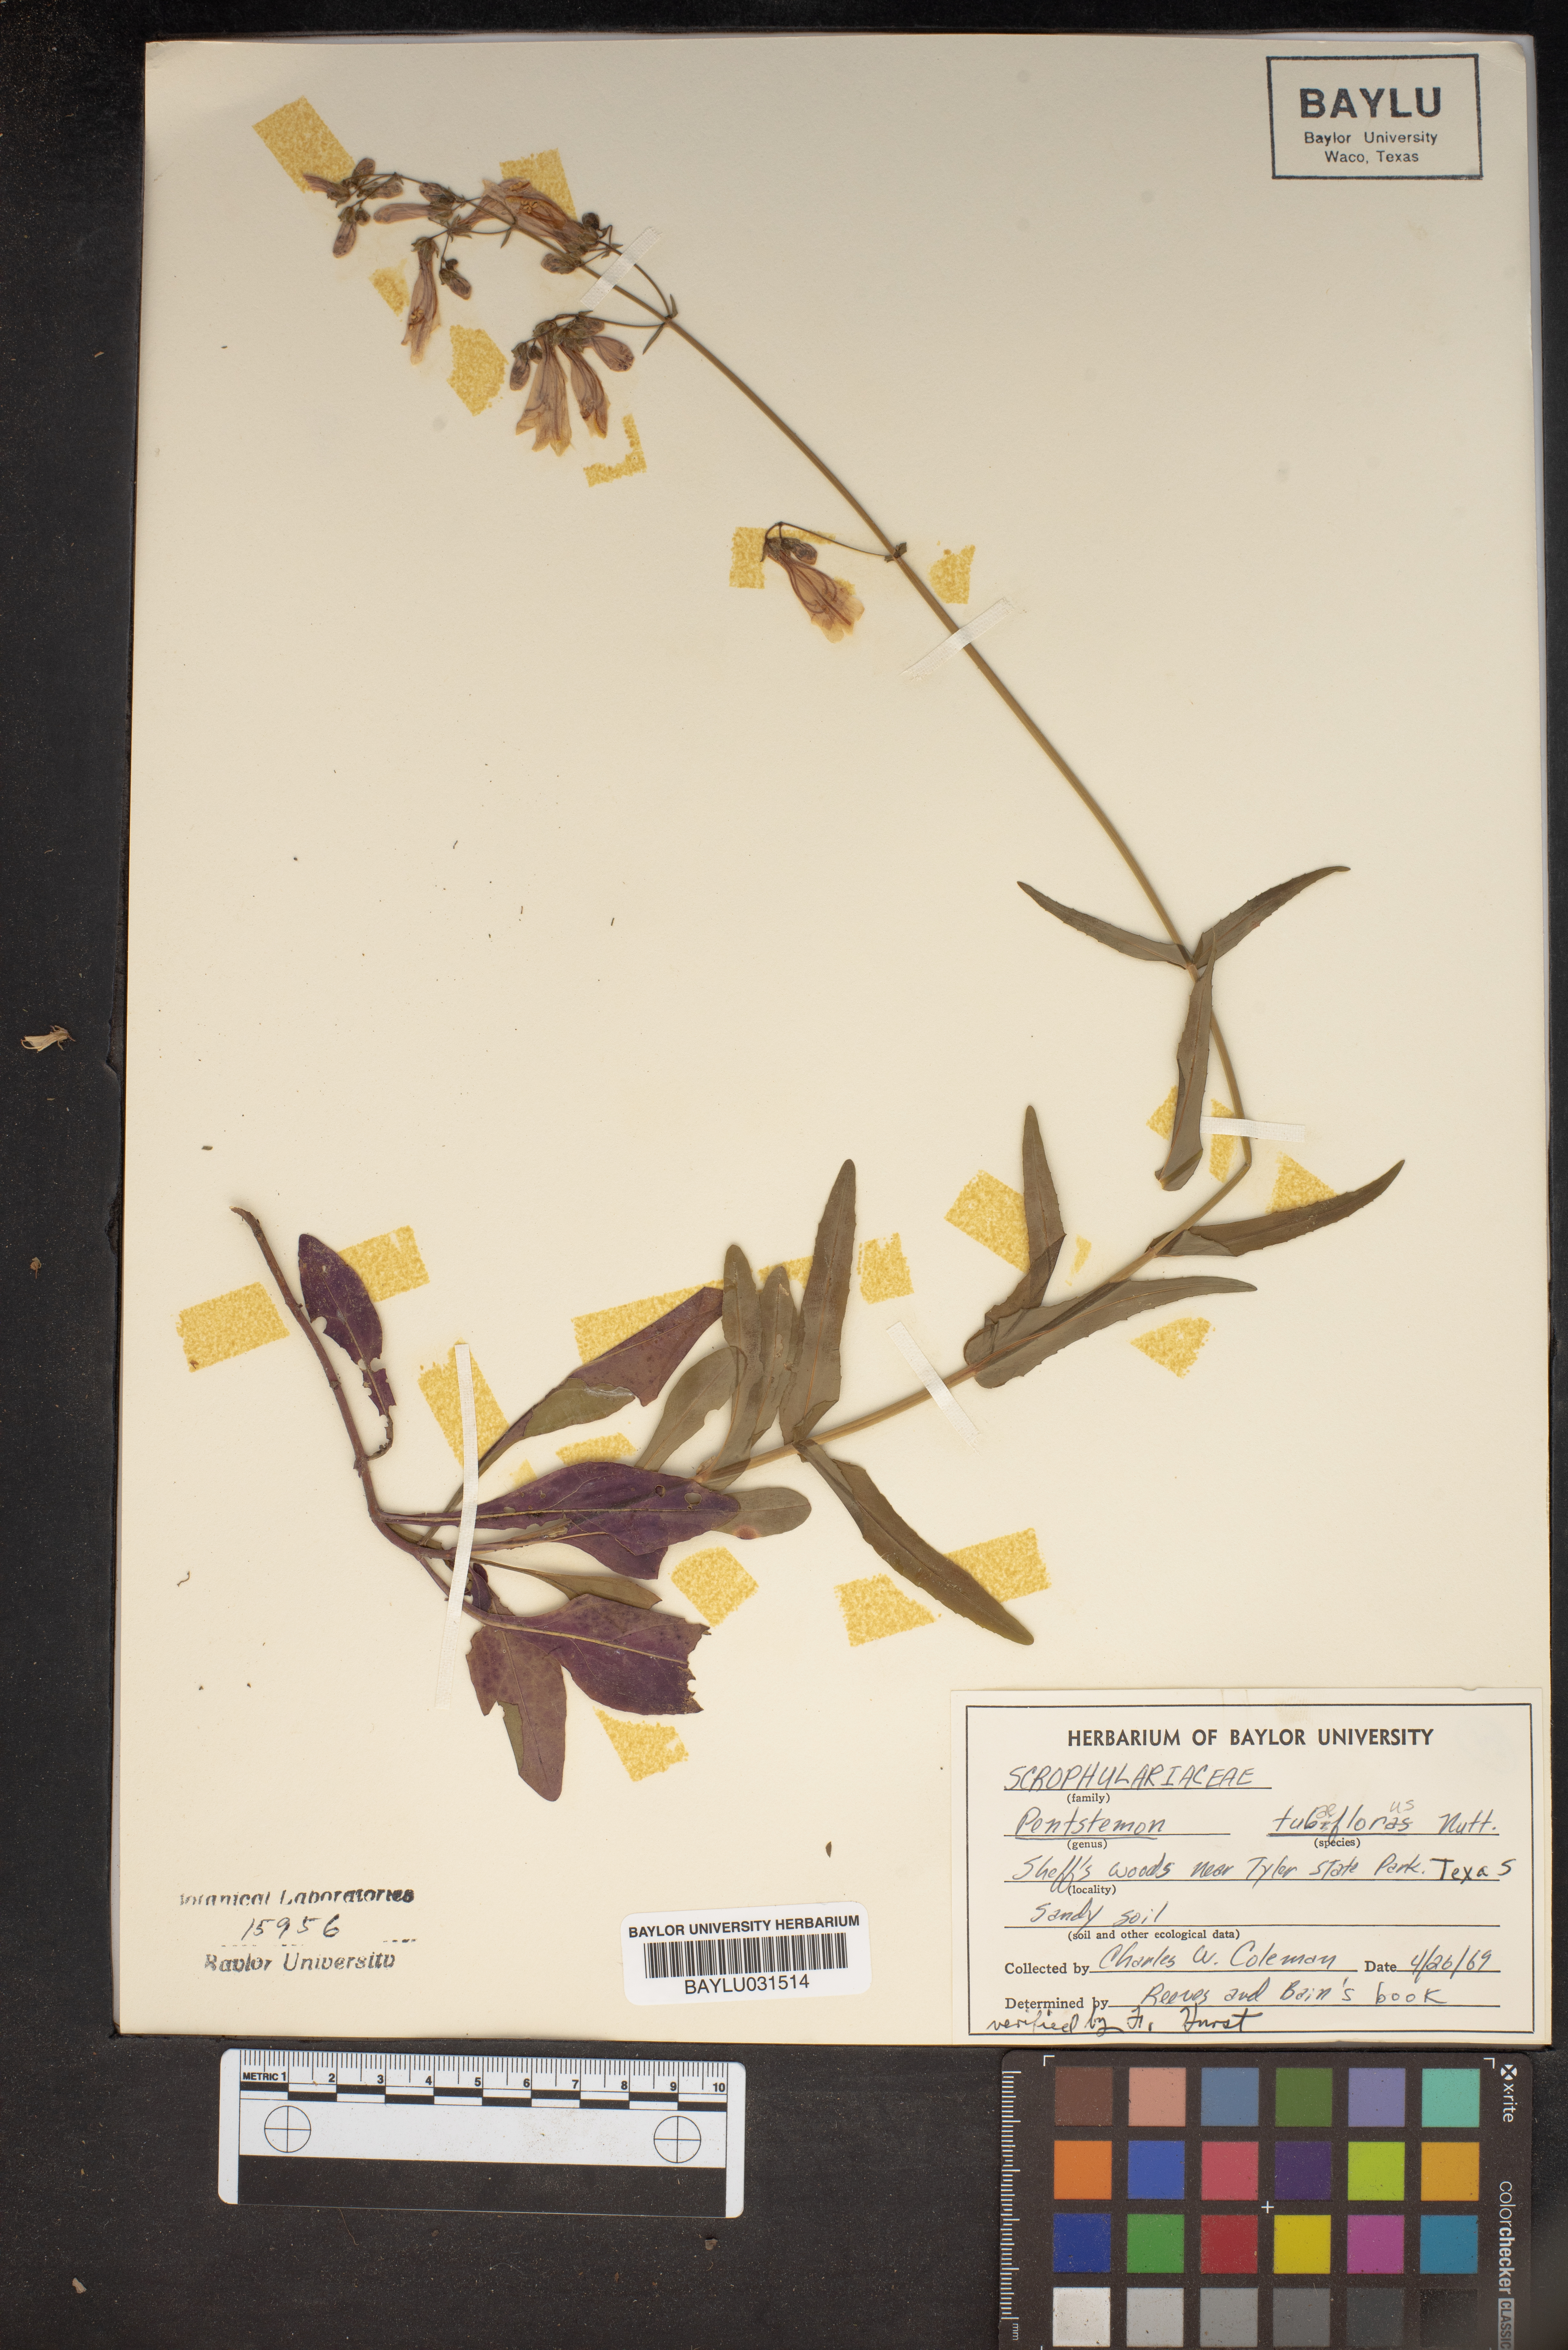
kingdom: Plantae
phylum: Tracheophyta
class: Magnoliopsida
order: Lamiales
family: Plantaginaceae
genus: Penstemon
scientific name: Penstemon tubaeflorus
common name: White wand beardtongue
